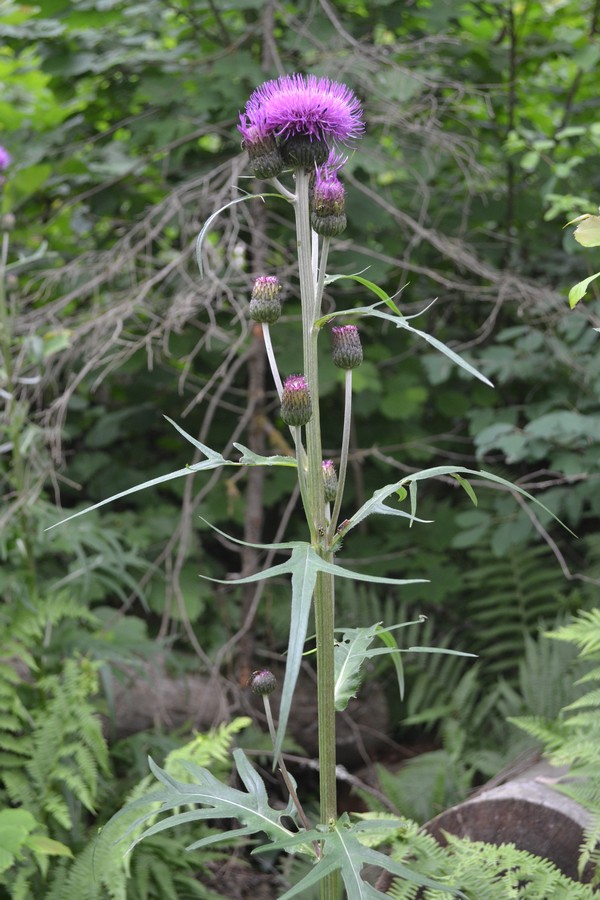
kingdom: Plantae
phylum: Tracheophyta
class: Magnoliopsida
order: Asterales
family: Asteraceae
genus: Cirsium
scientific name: Cirsium heterophyllum
